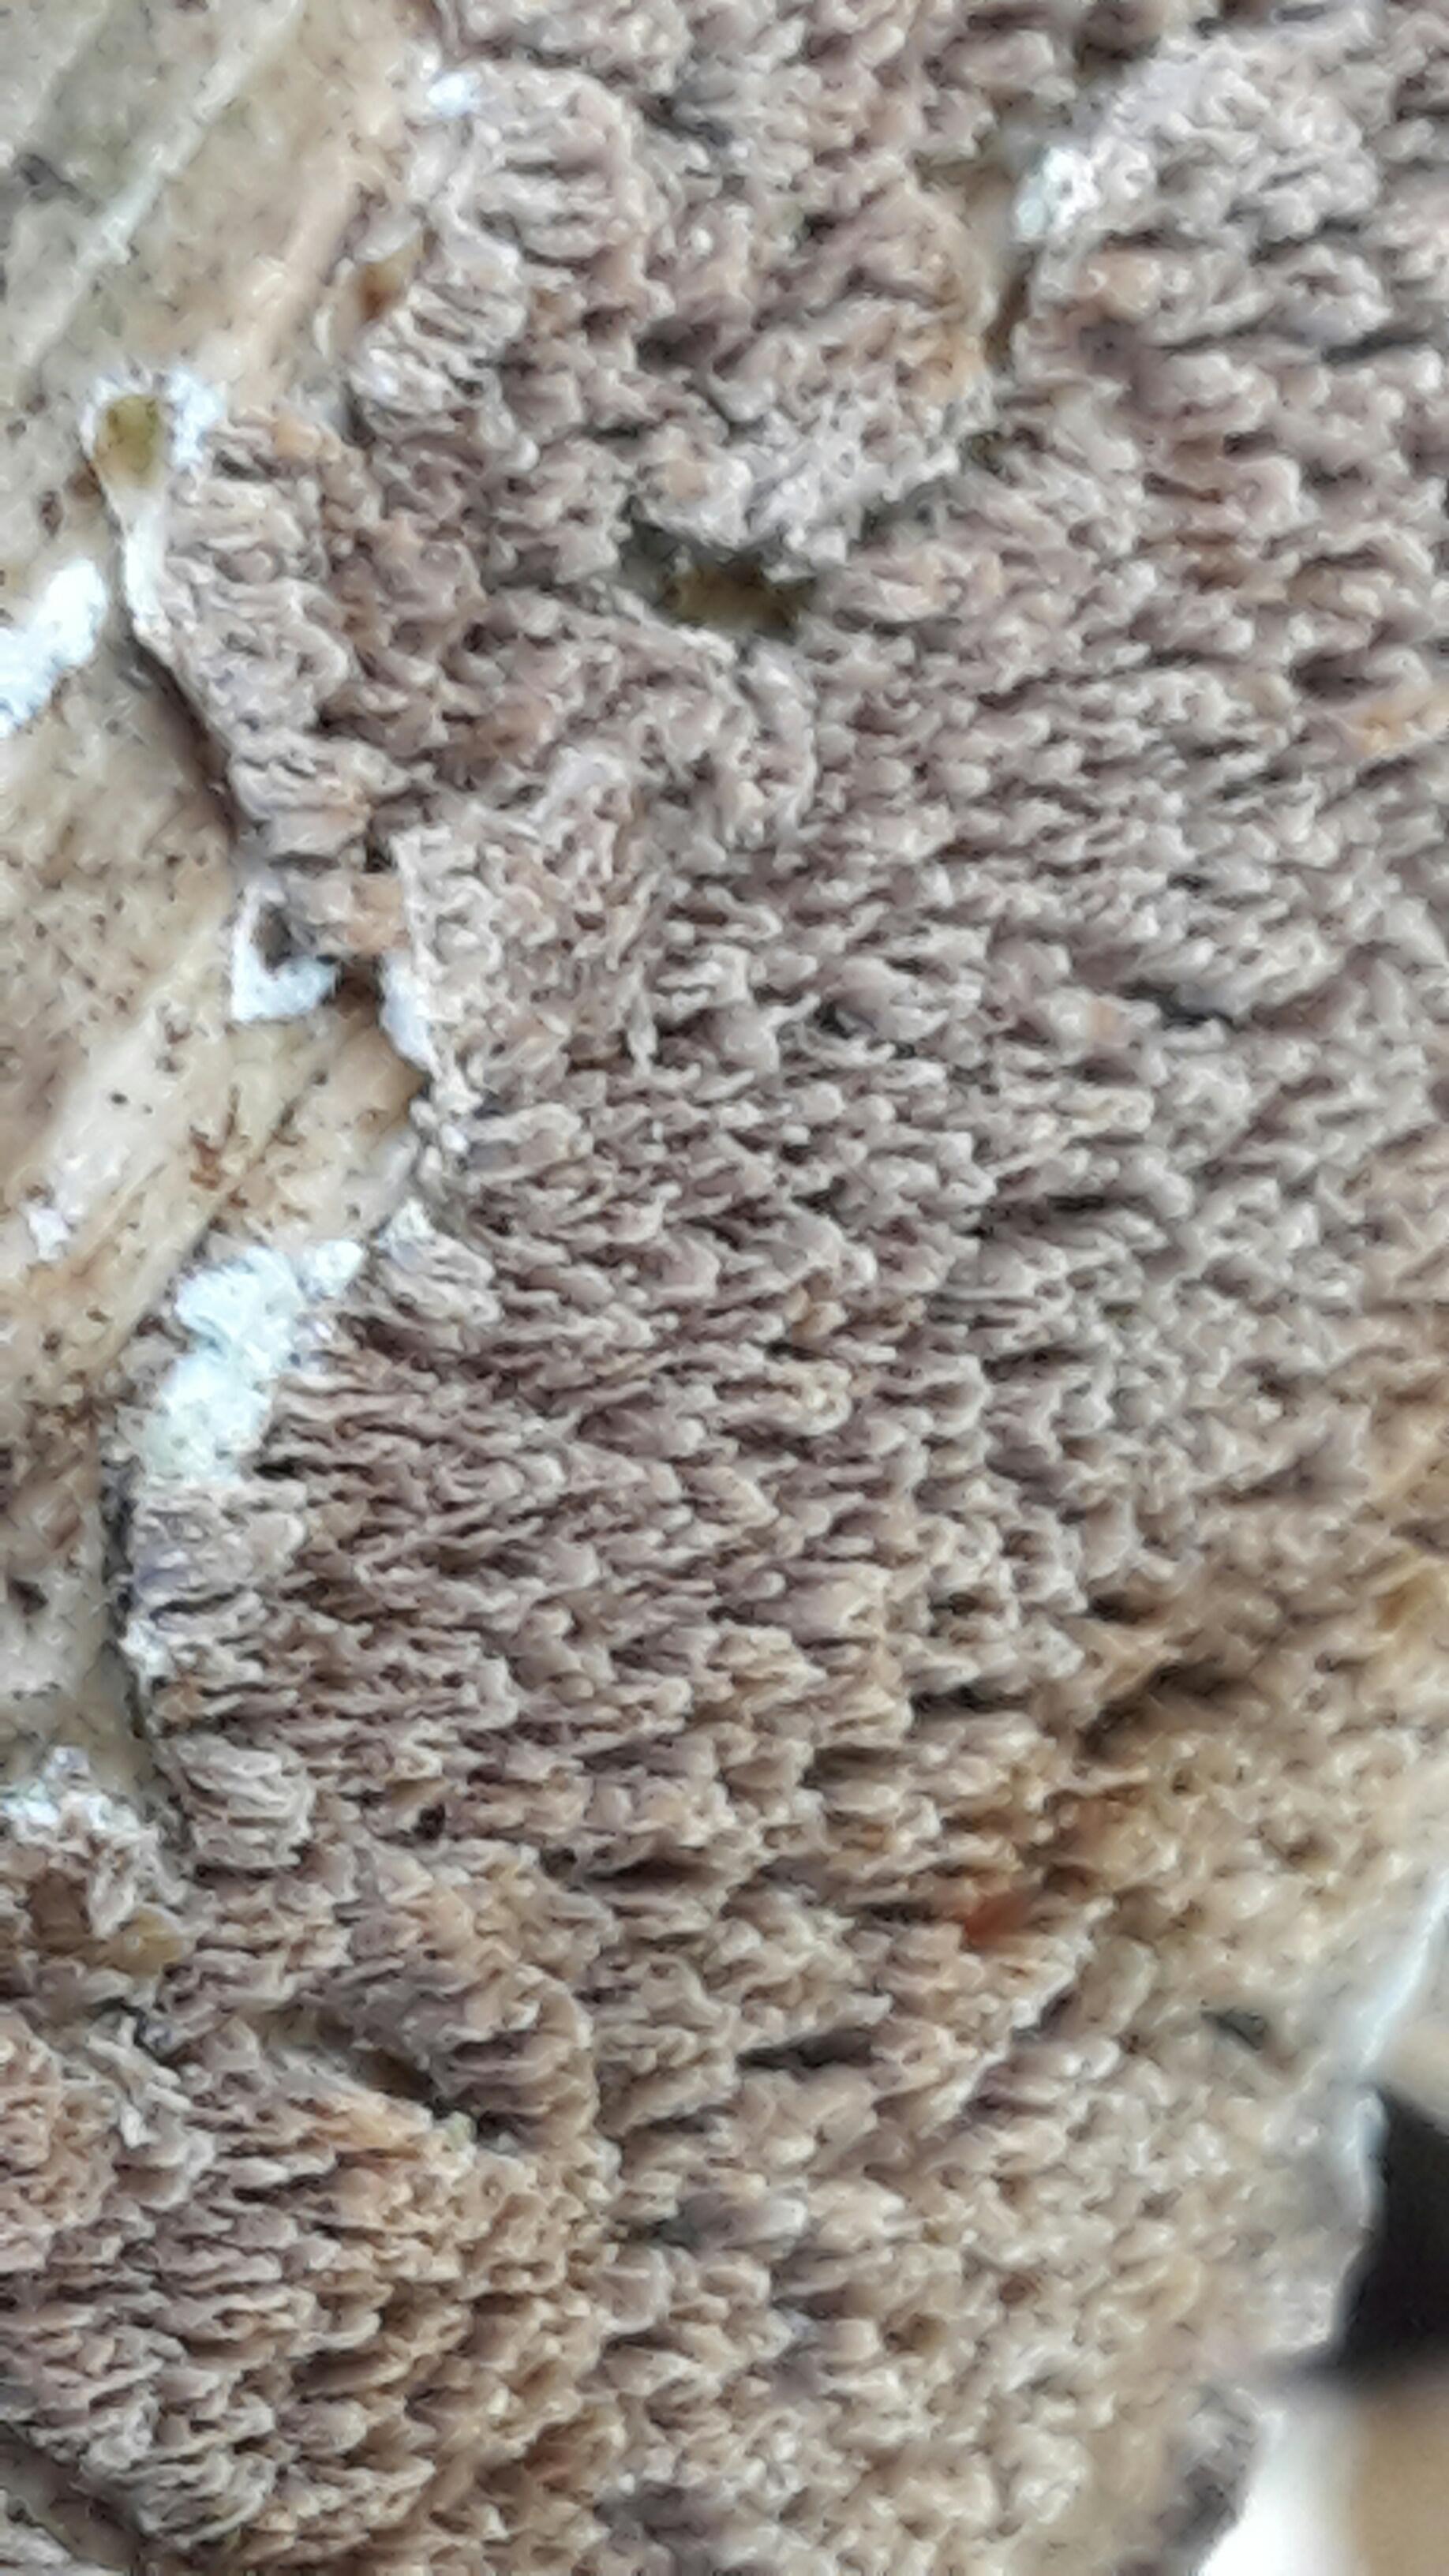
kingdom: Fungi
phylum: Basidiomycota
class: Agaricomycetes
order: Hymenochaetales
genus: Trichaptum
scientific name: Trichaptum fuscoviolaceum
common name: tandet violporesvamp
